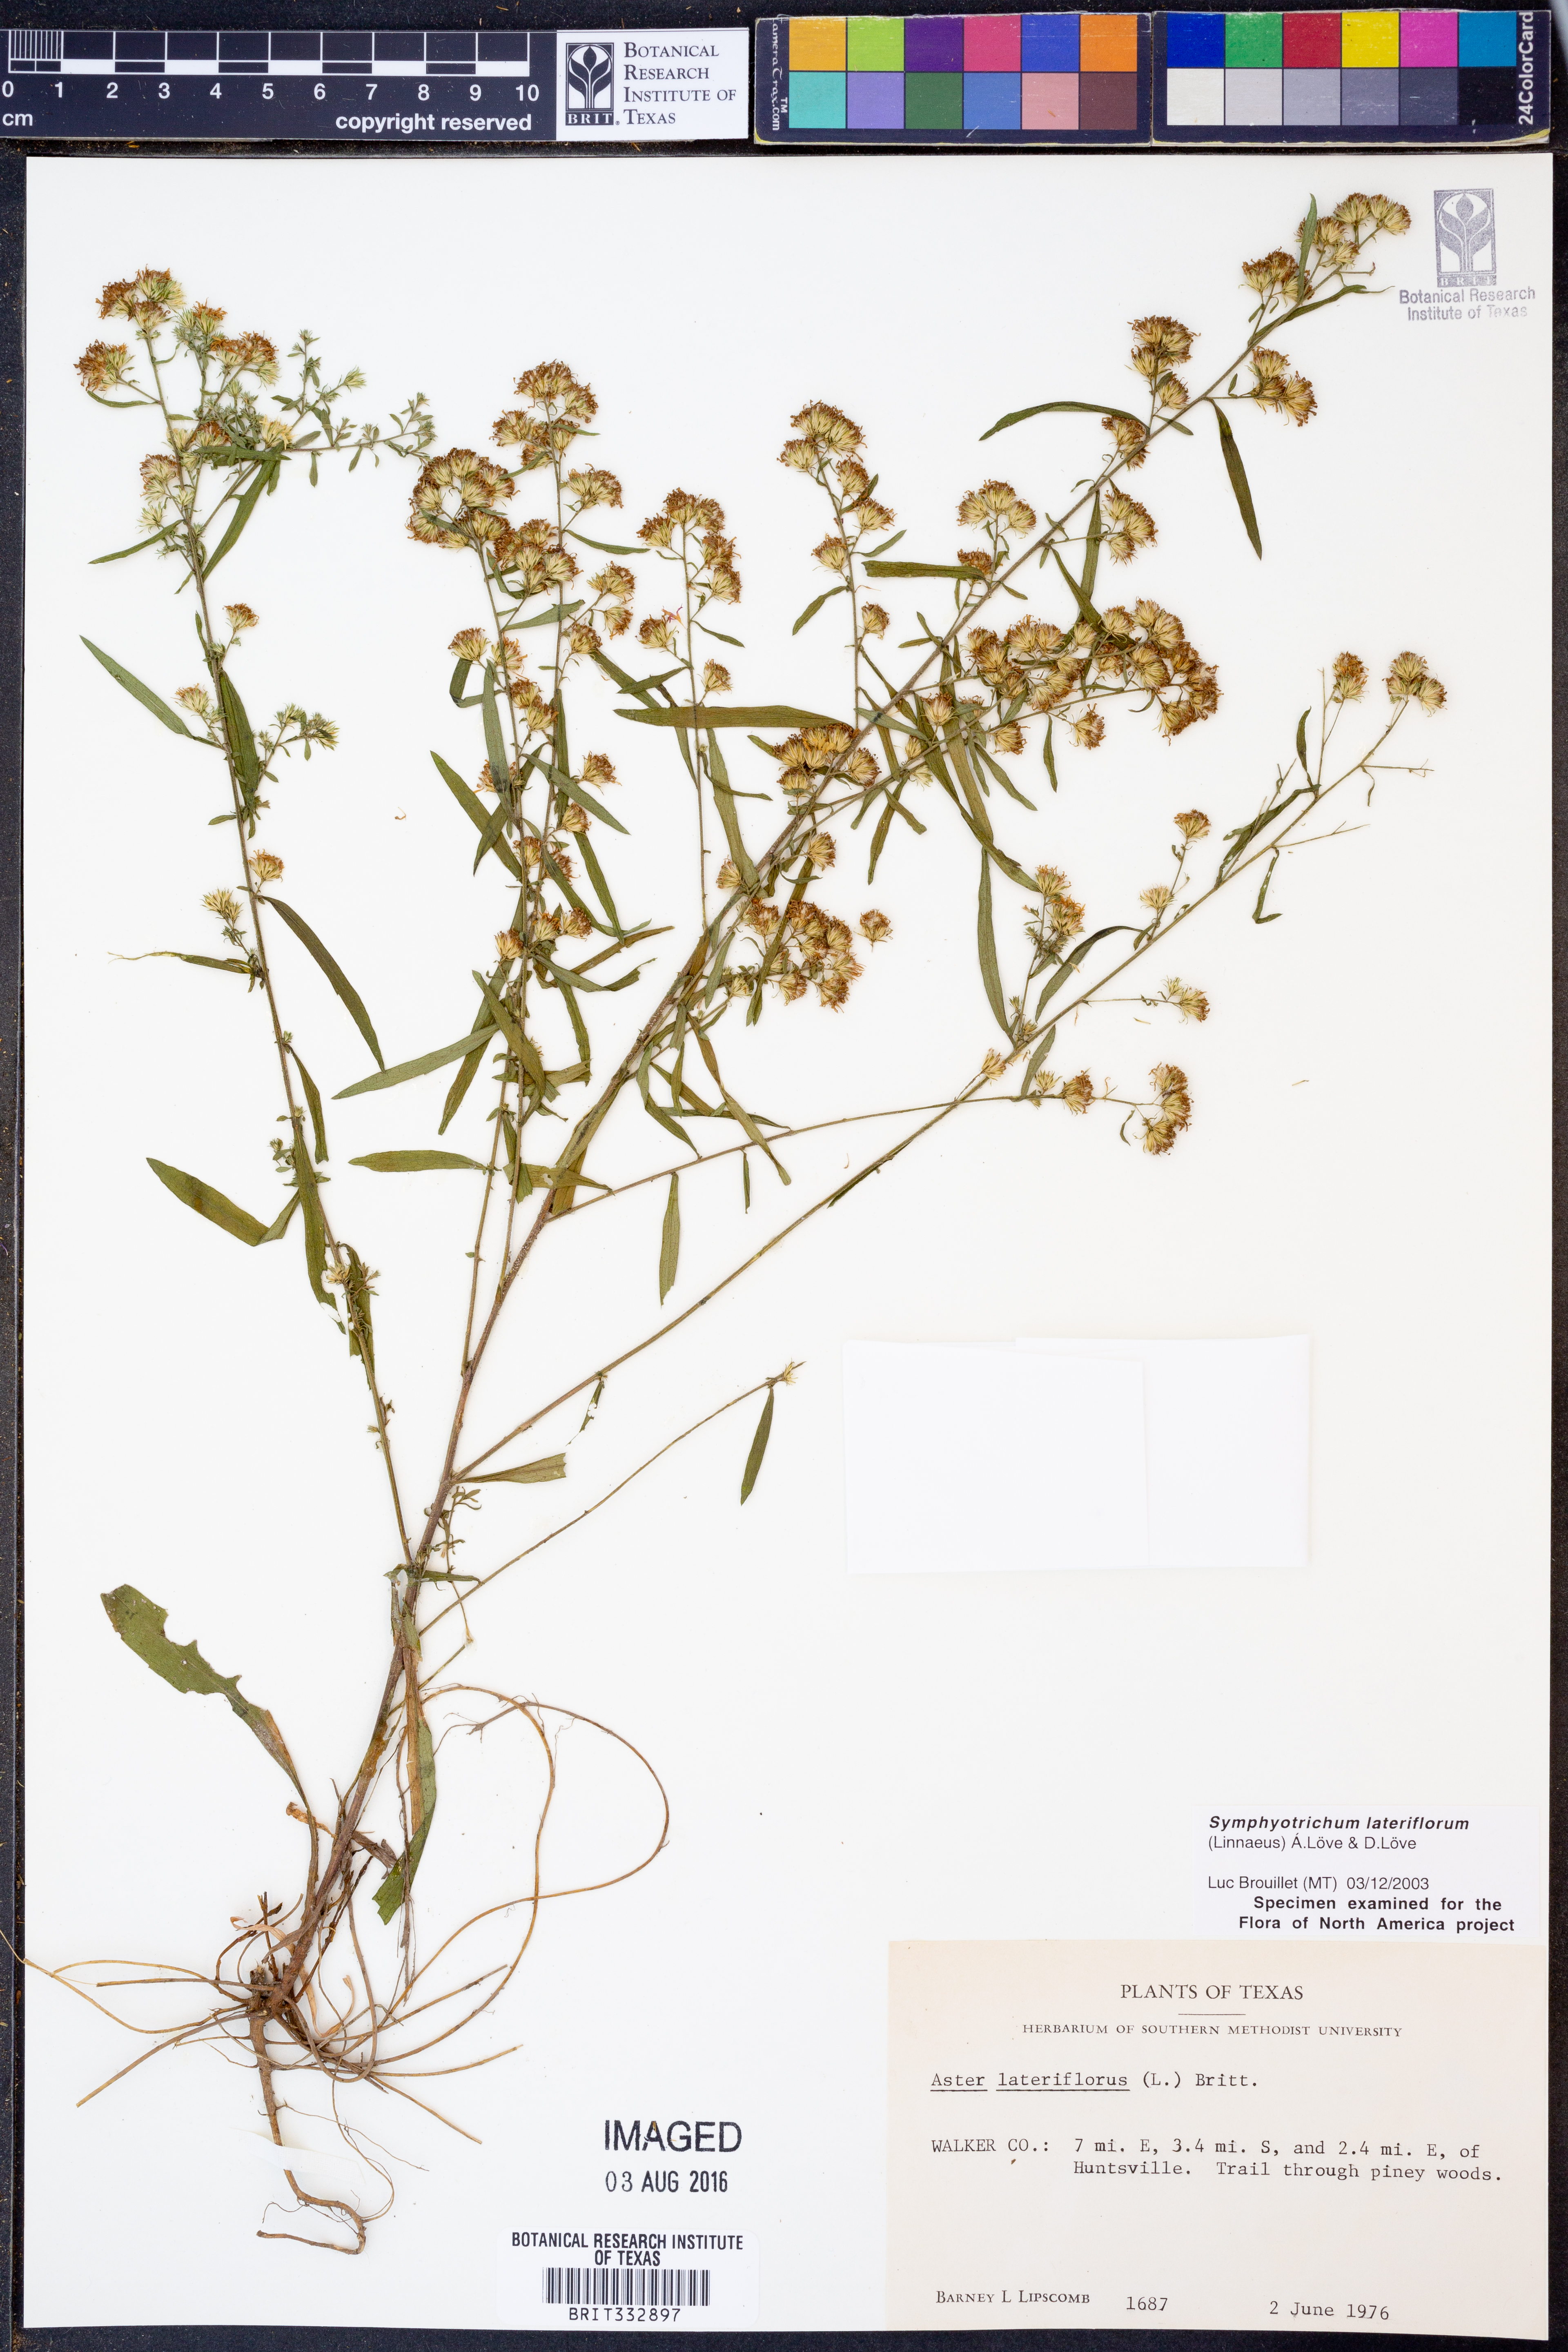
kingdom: Plantae
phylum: Tracheophyta
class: Magnoliopsida
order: Asterales
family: Asteraceae
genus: Symphyotrichum
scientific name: Symphyotrichum lateriflorum
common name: Calico aster
